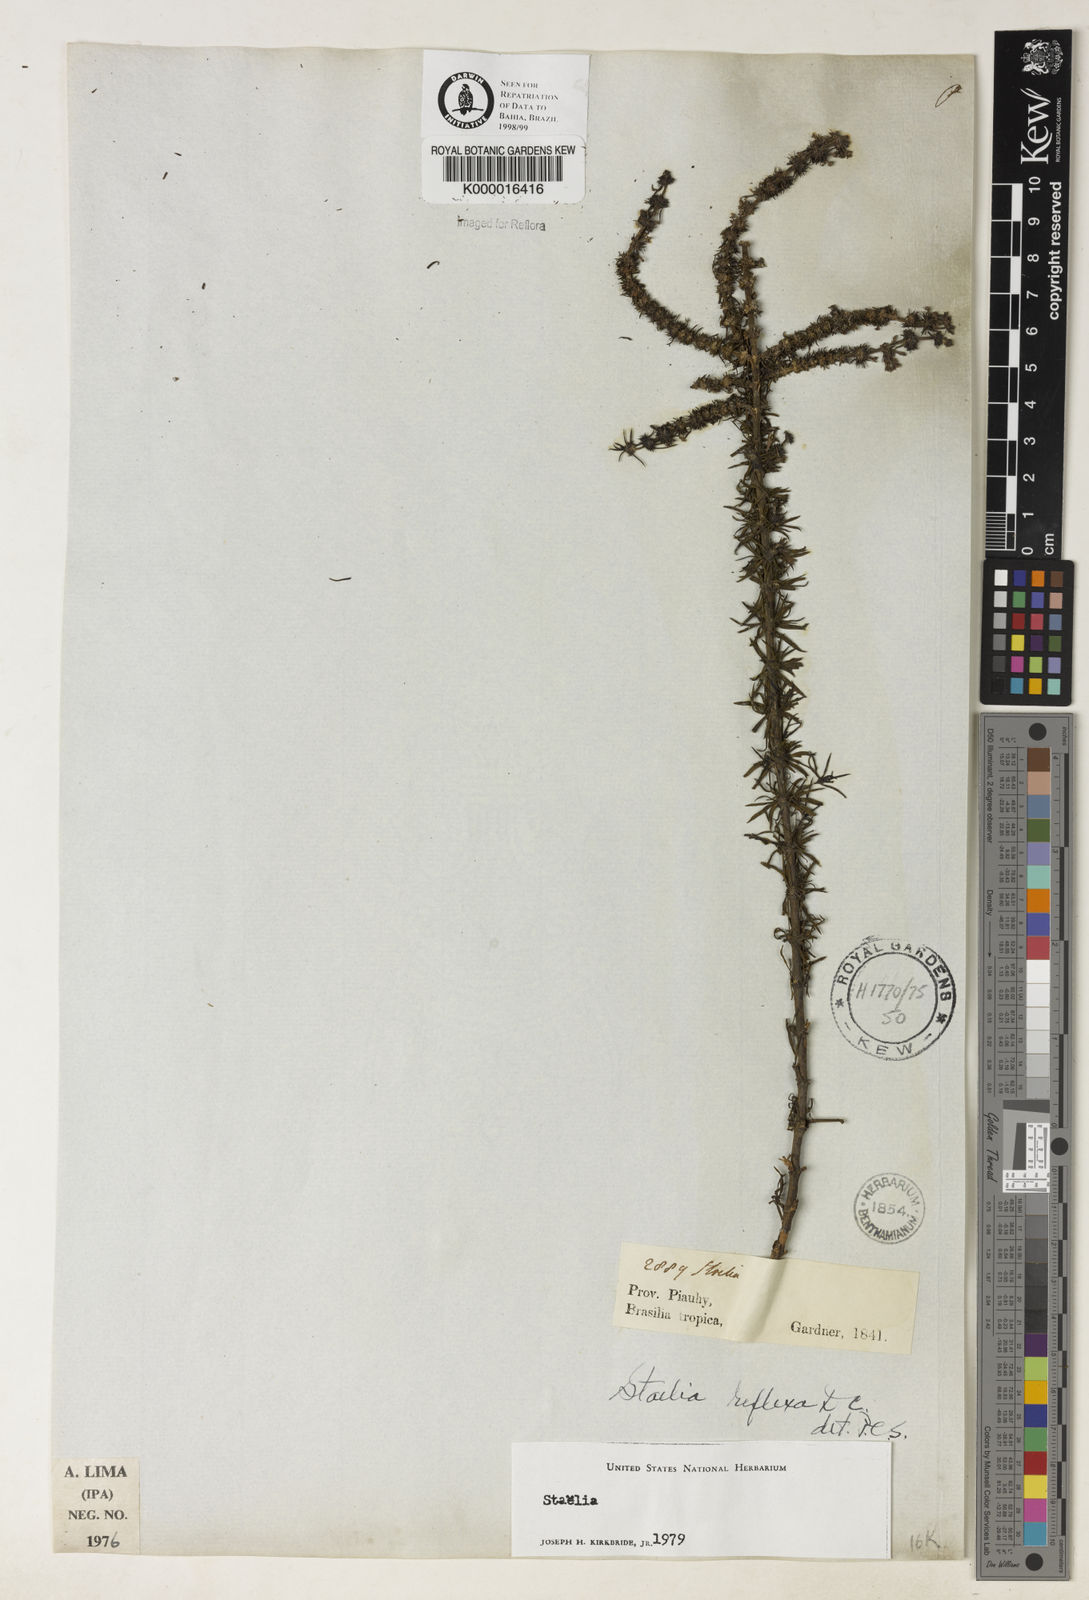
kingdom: Plantae
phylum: Tracheophyta
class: Magnoliopsida
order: Gentianales
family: Rubiaceae
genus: Staelia
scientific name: Staelia reflexa
